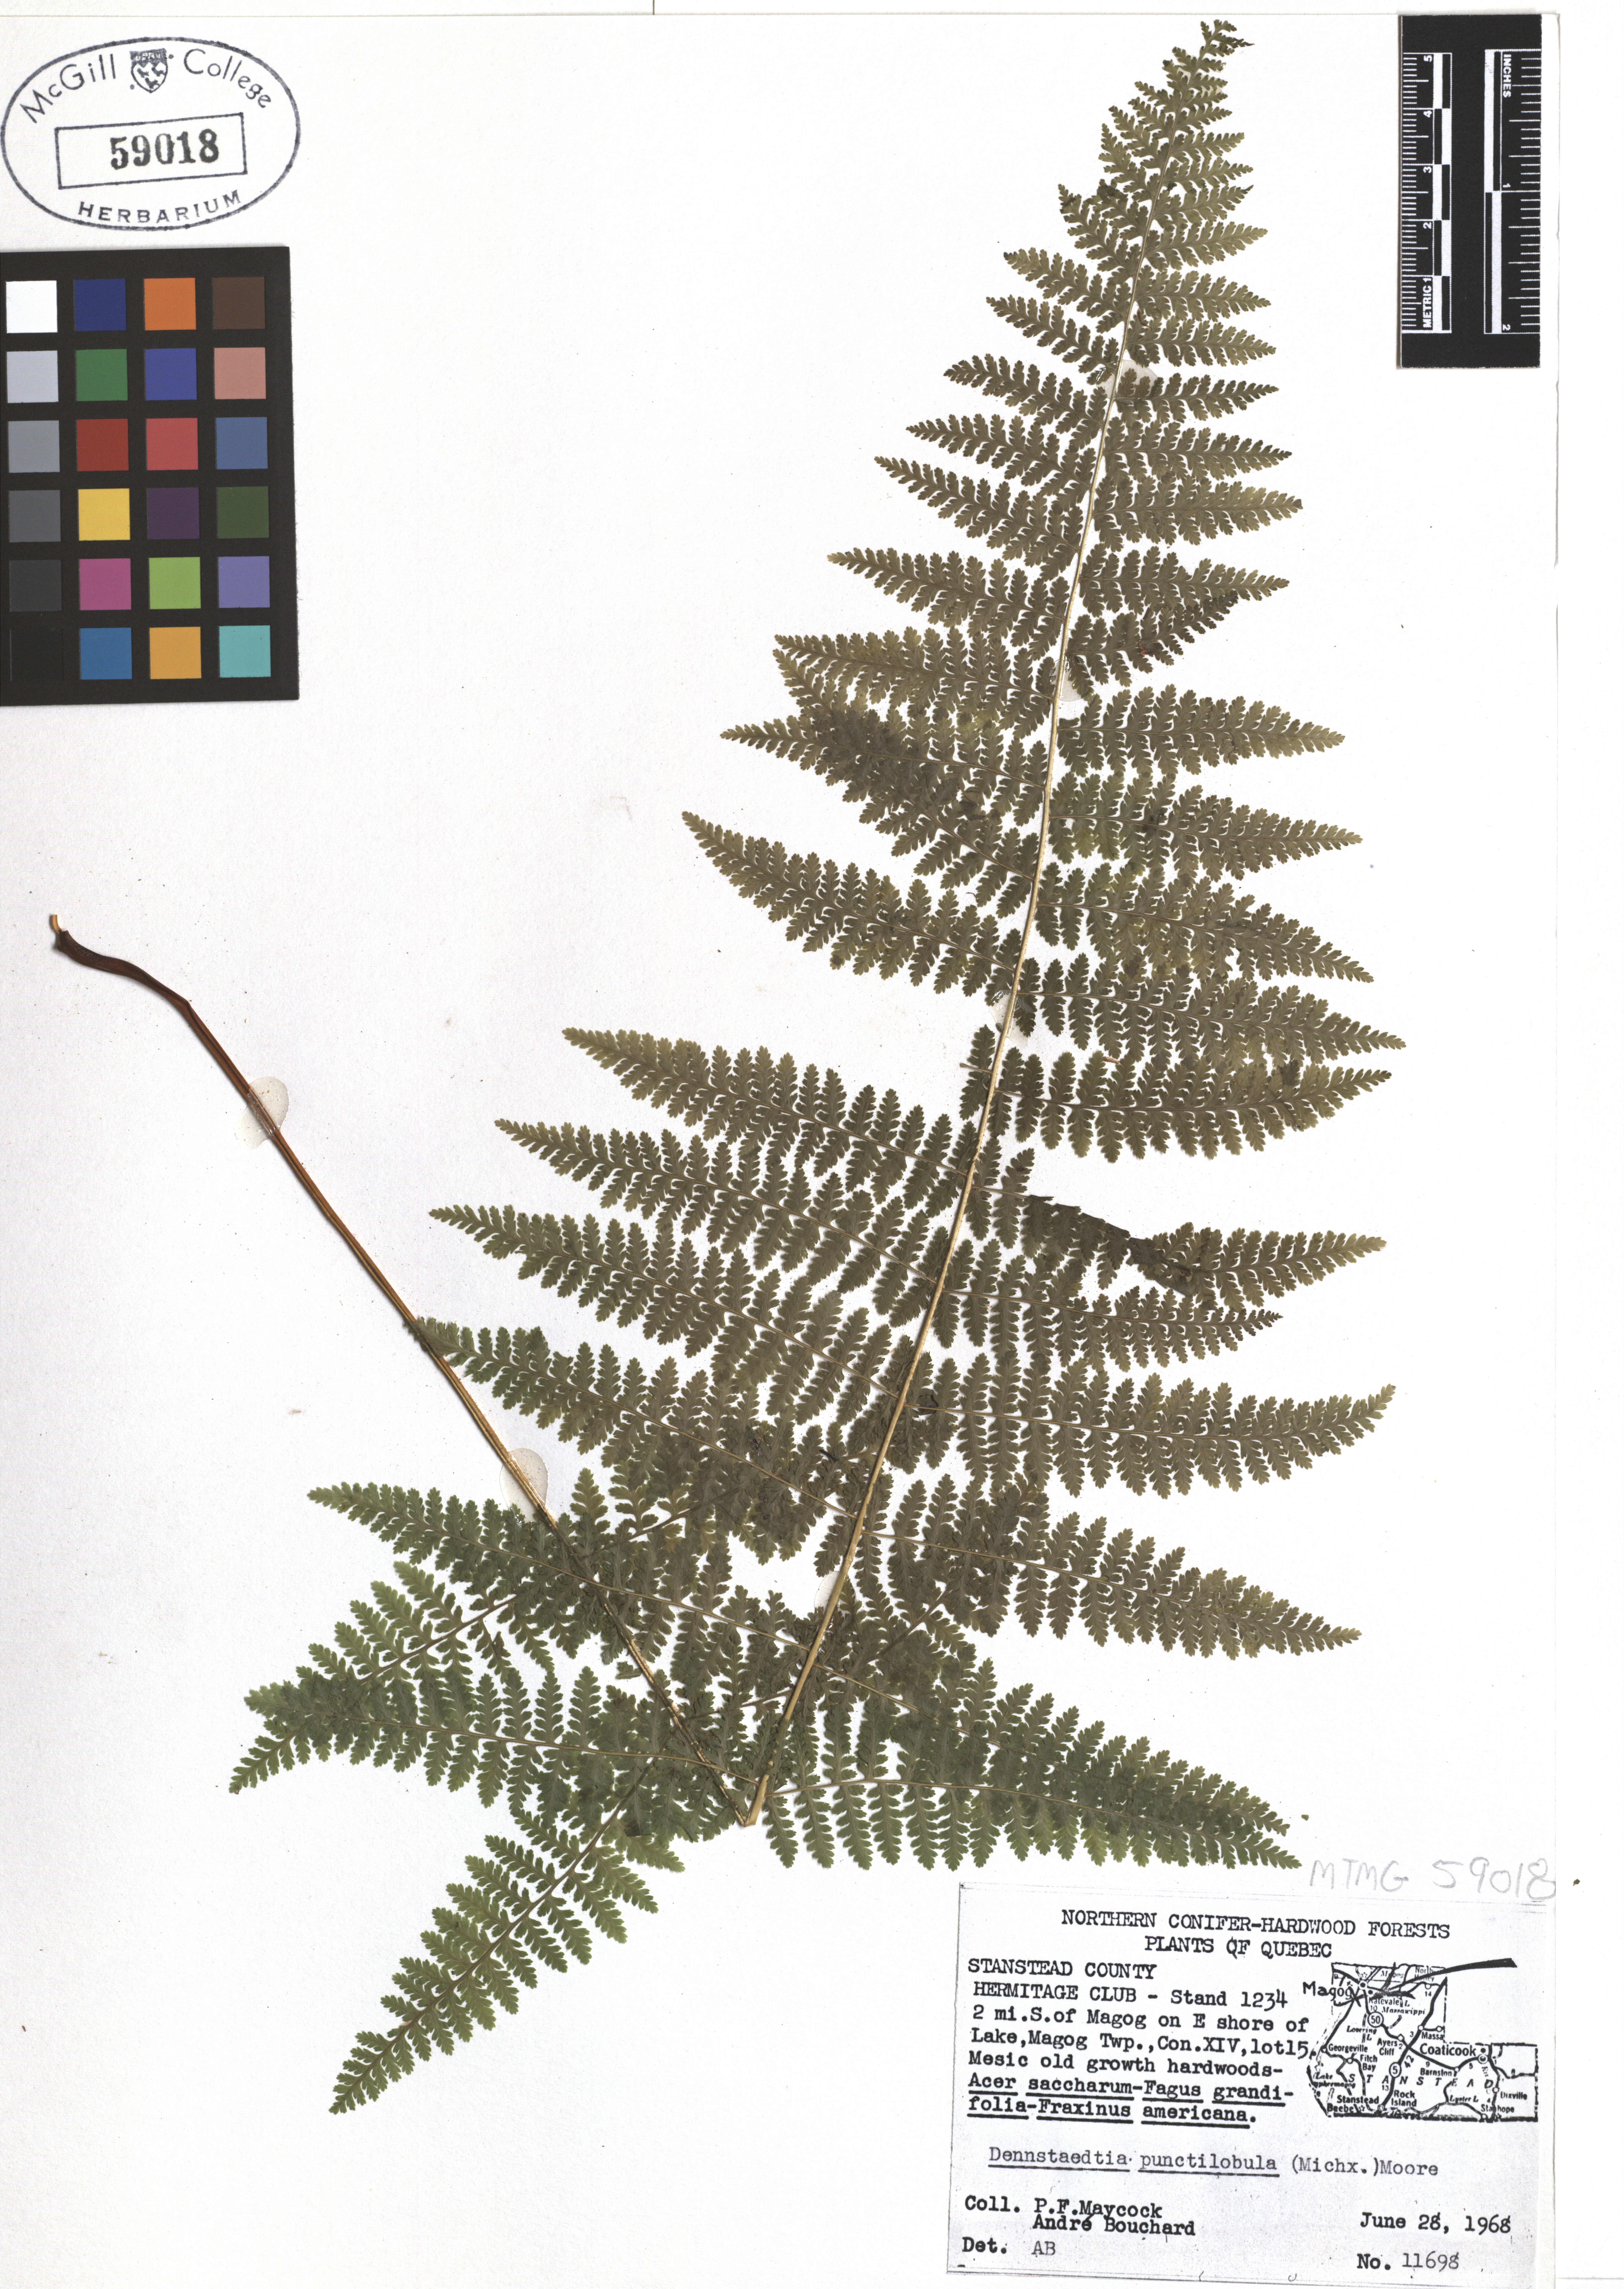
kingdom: Plantae
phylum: Tracheophyta
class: Polypodiopsida
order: Polypodiales
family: Dennstaedtiaceae
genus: Sitobolium
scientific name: Sitobolium punctilobum
